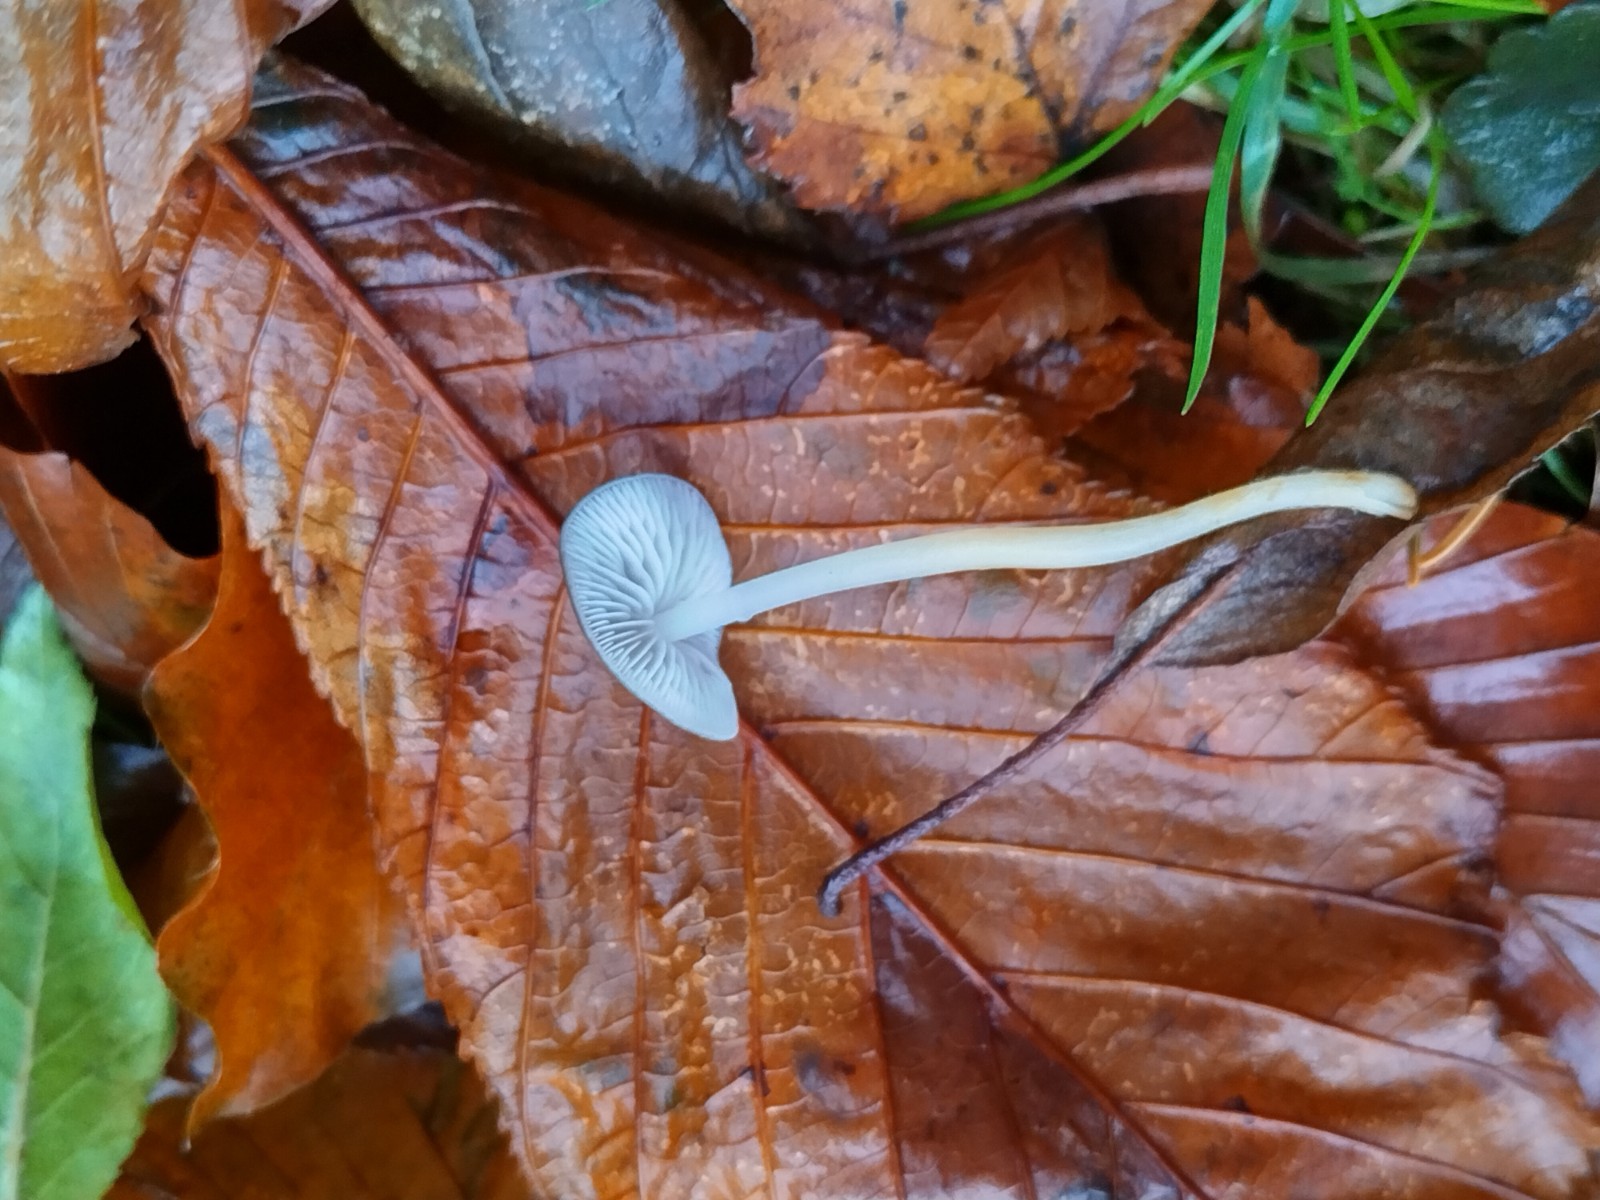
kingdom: Fungi
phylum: Basidiomycota
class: Agaricomycetes
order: Agaricales
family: Mycenaceae
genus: Mycena
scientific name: Mycena
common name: huesvamp
